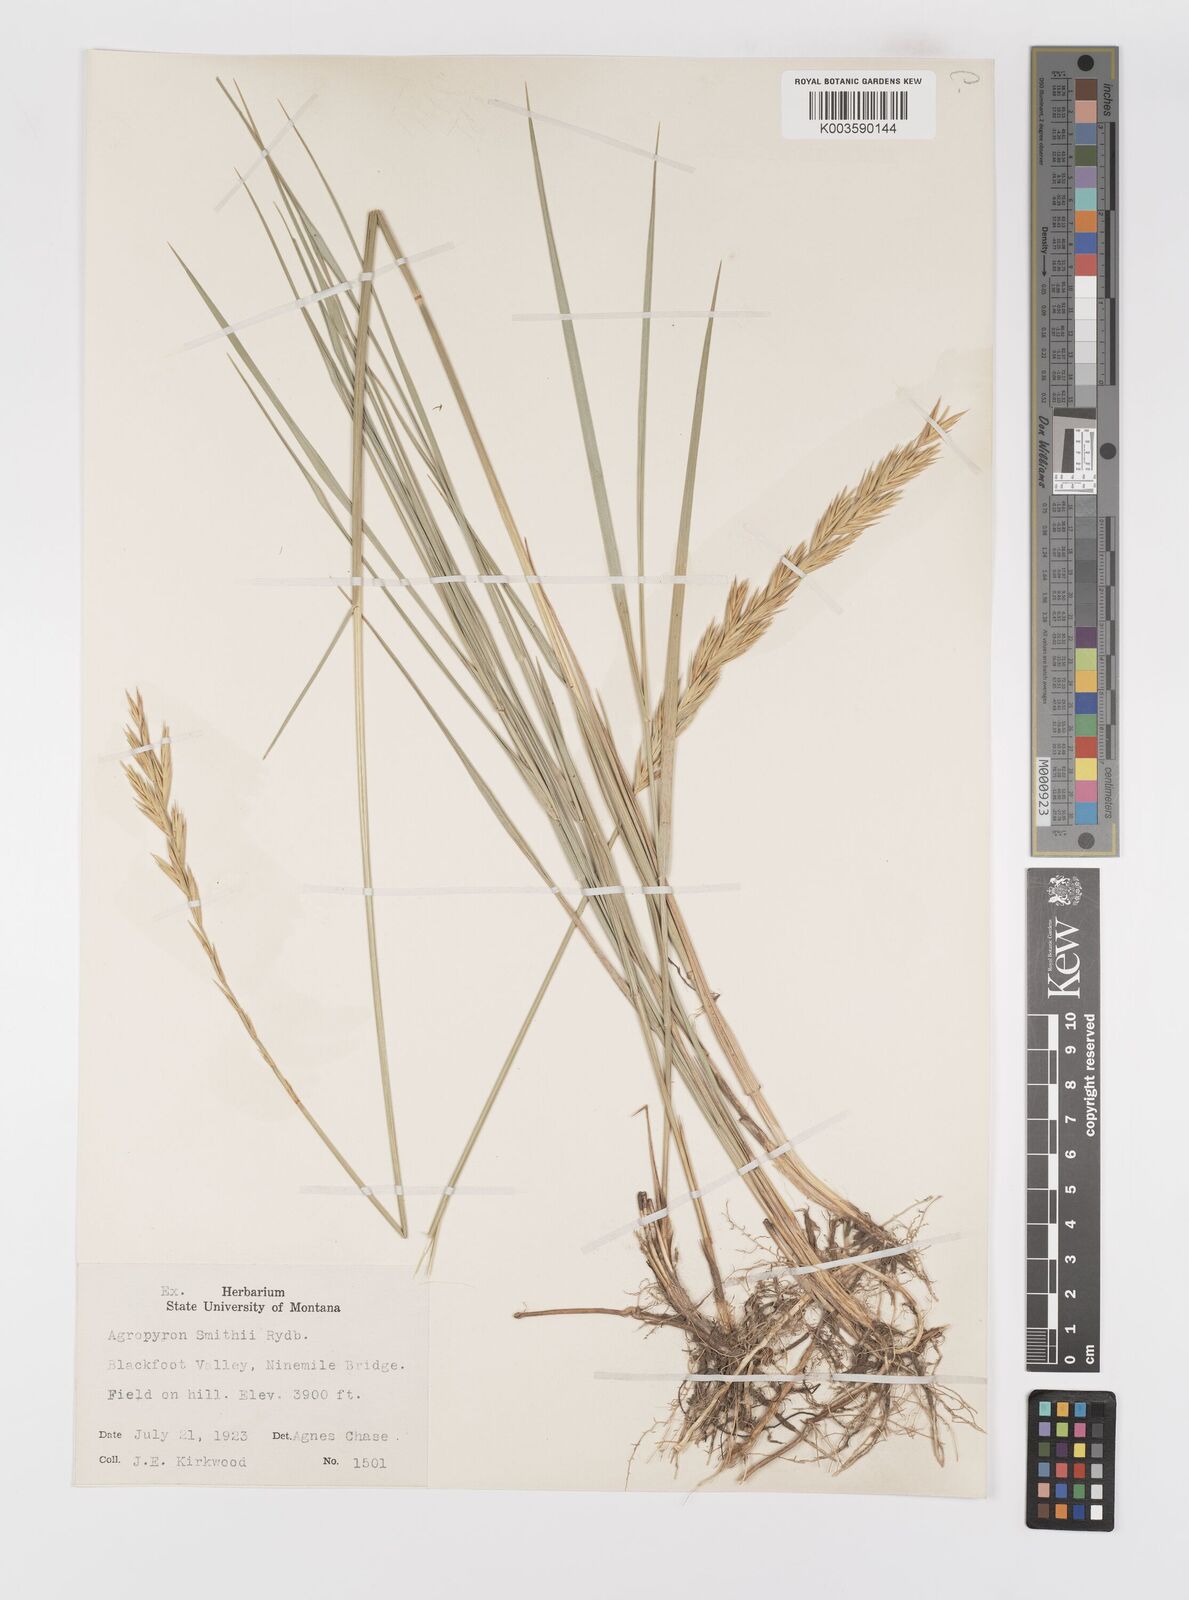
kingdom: Plantae
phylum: Tracheophyta
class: Liliopsida
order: Poales
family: Poaceae
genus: Elymus
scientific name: Elymus smithii
